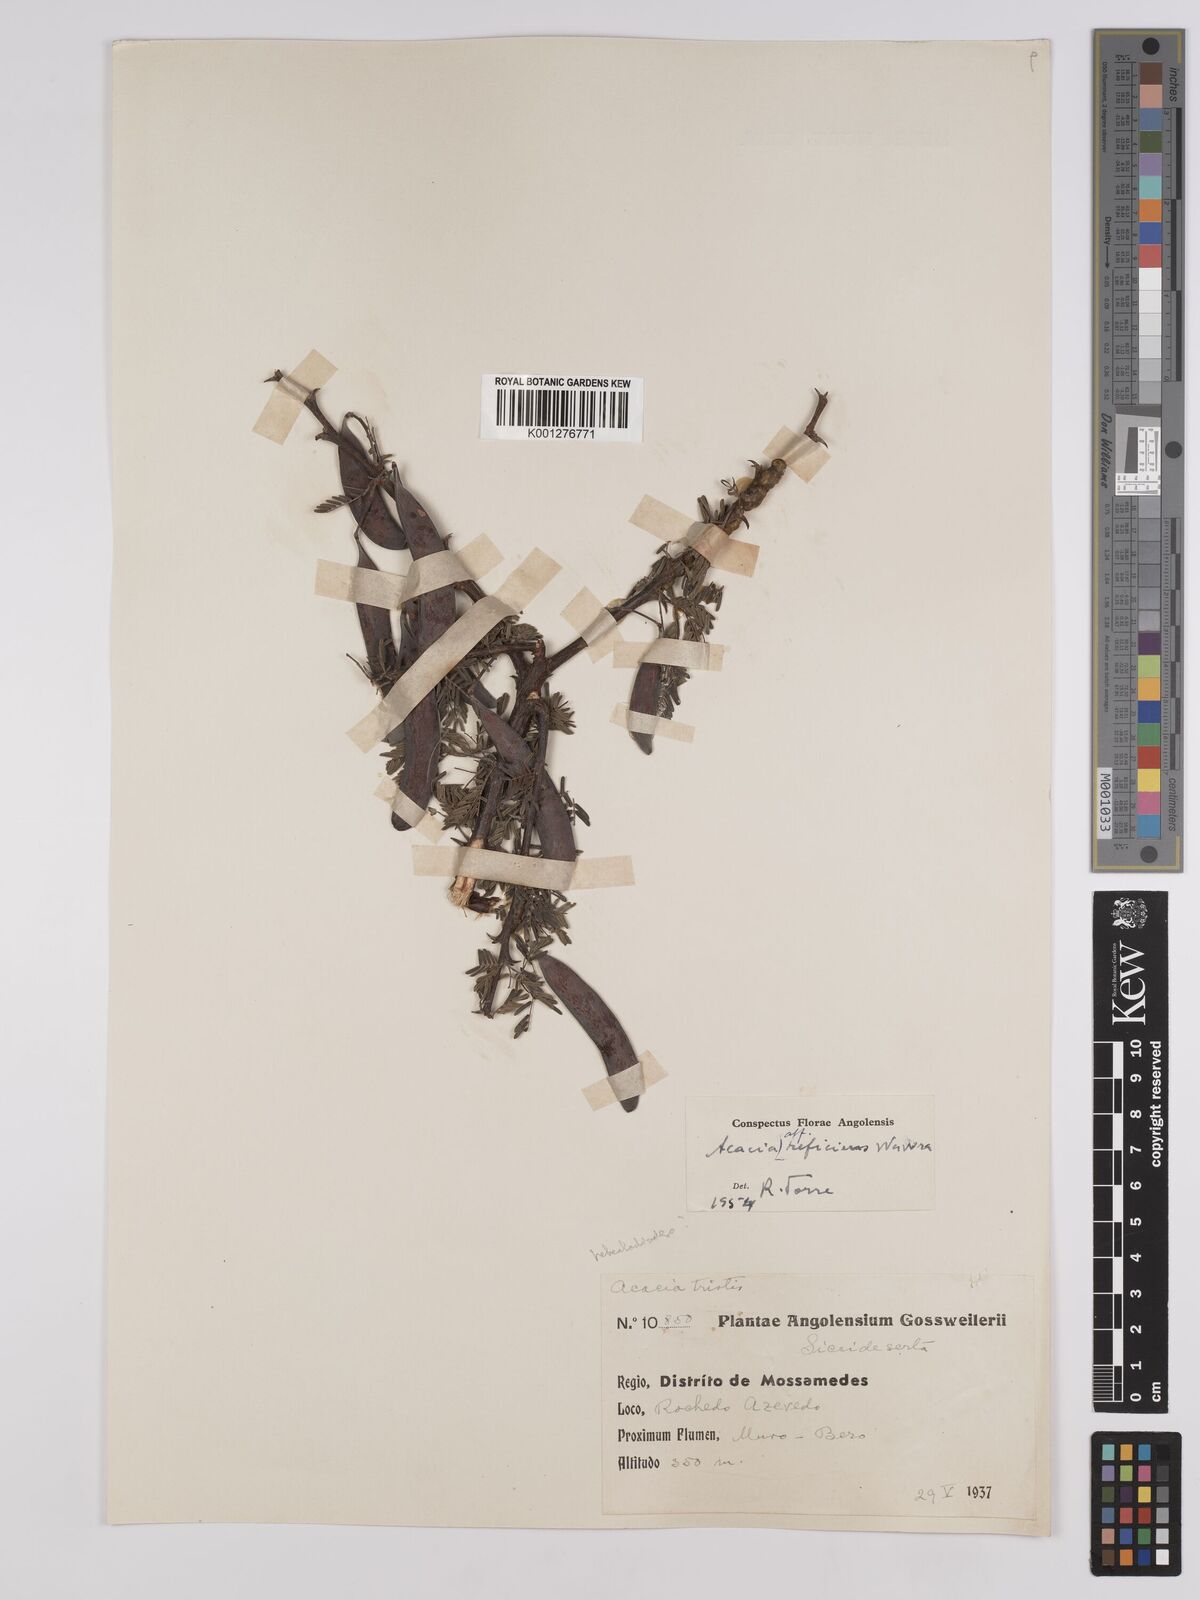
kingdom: Plantae
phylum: Tracheophyta
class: Magnoliopsida
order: Fabales
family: Fabaceae
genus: Vachellia
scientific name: Vachellia reficiens
